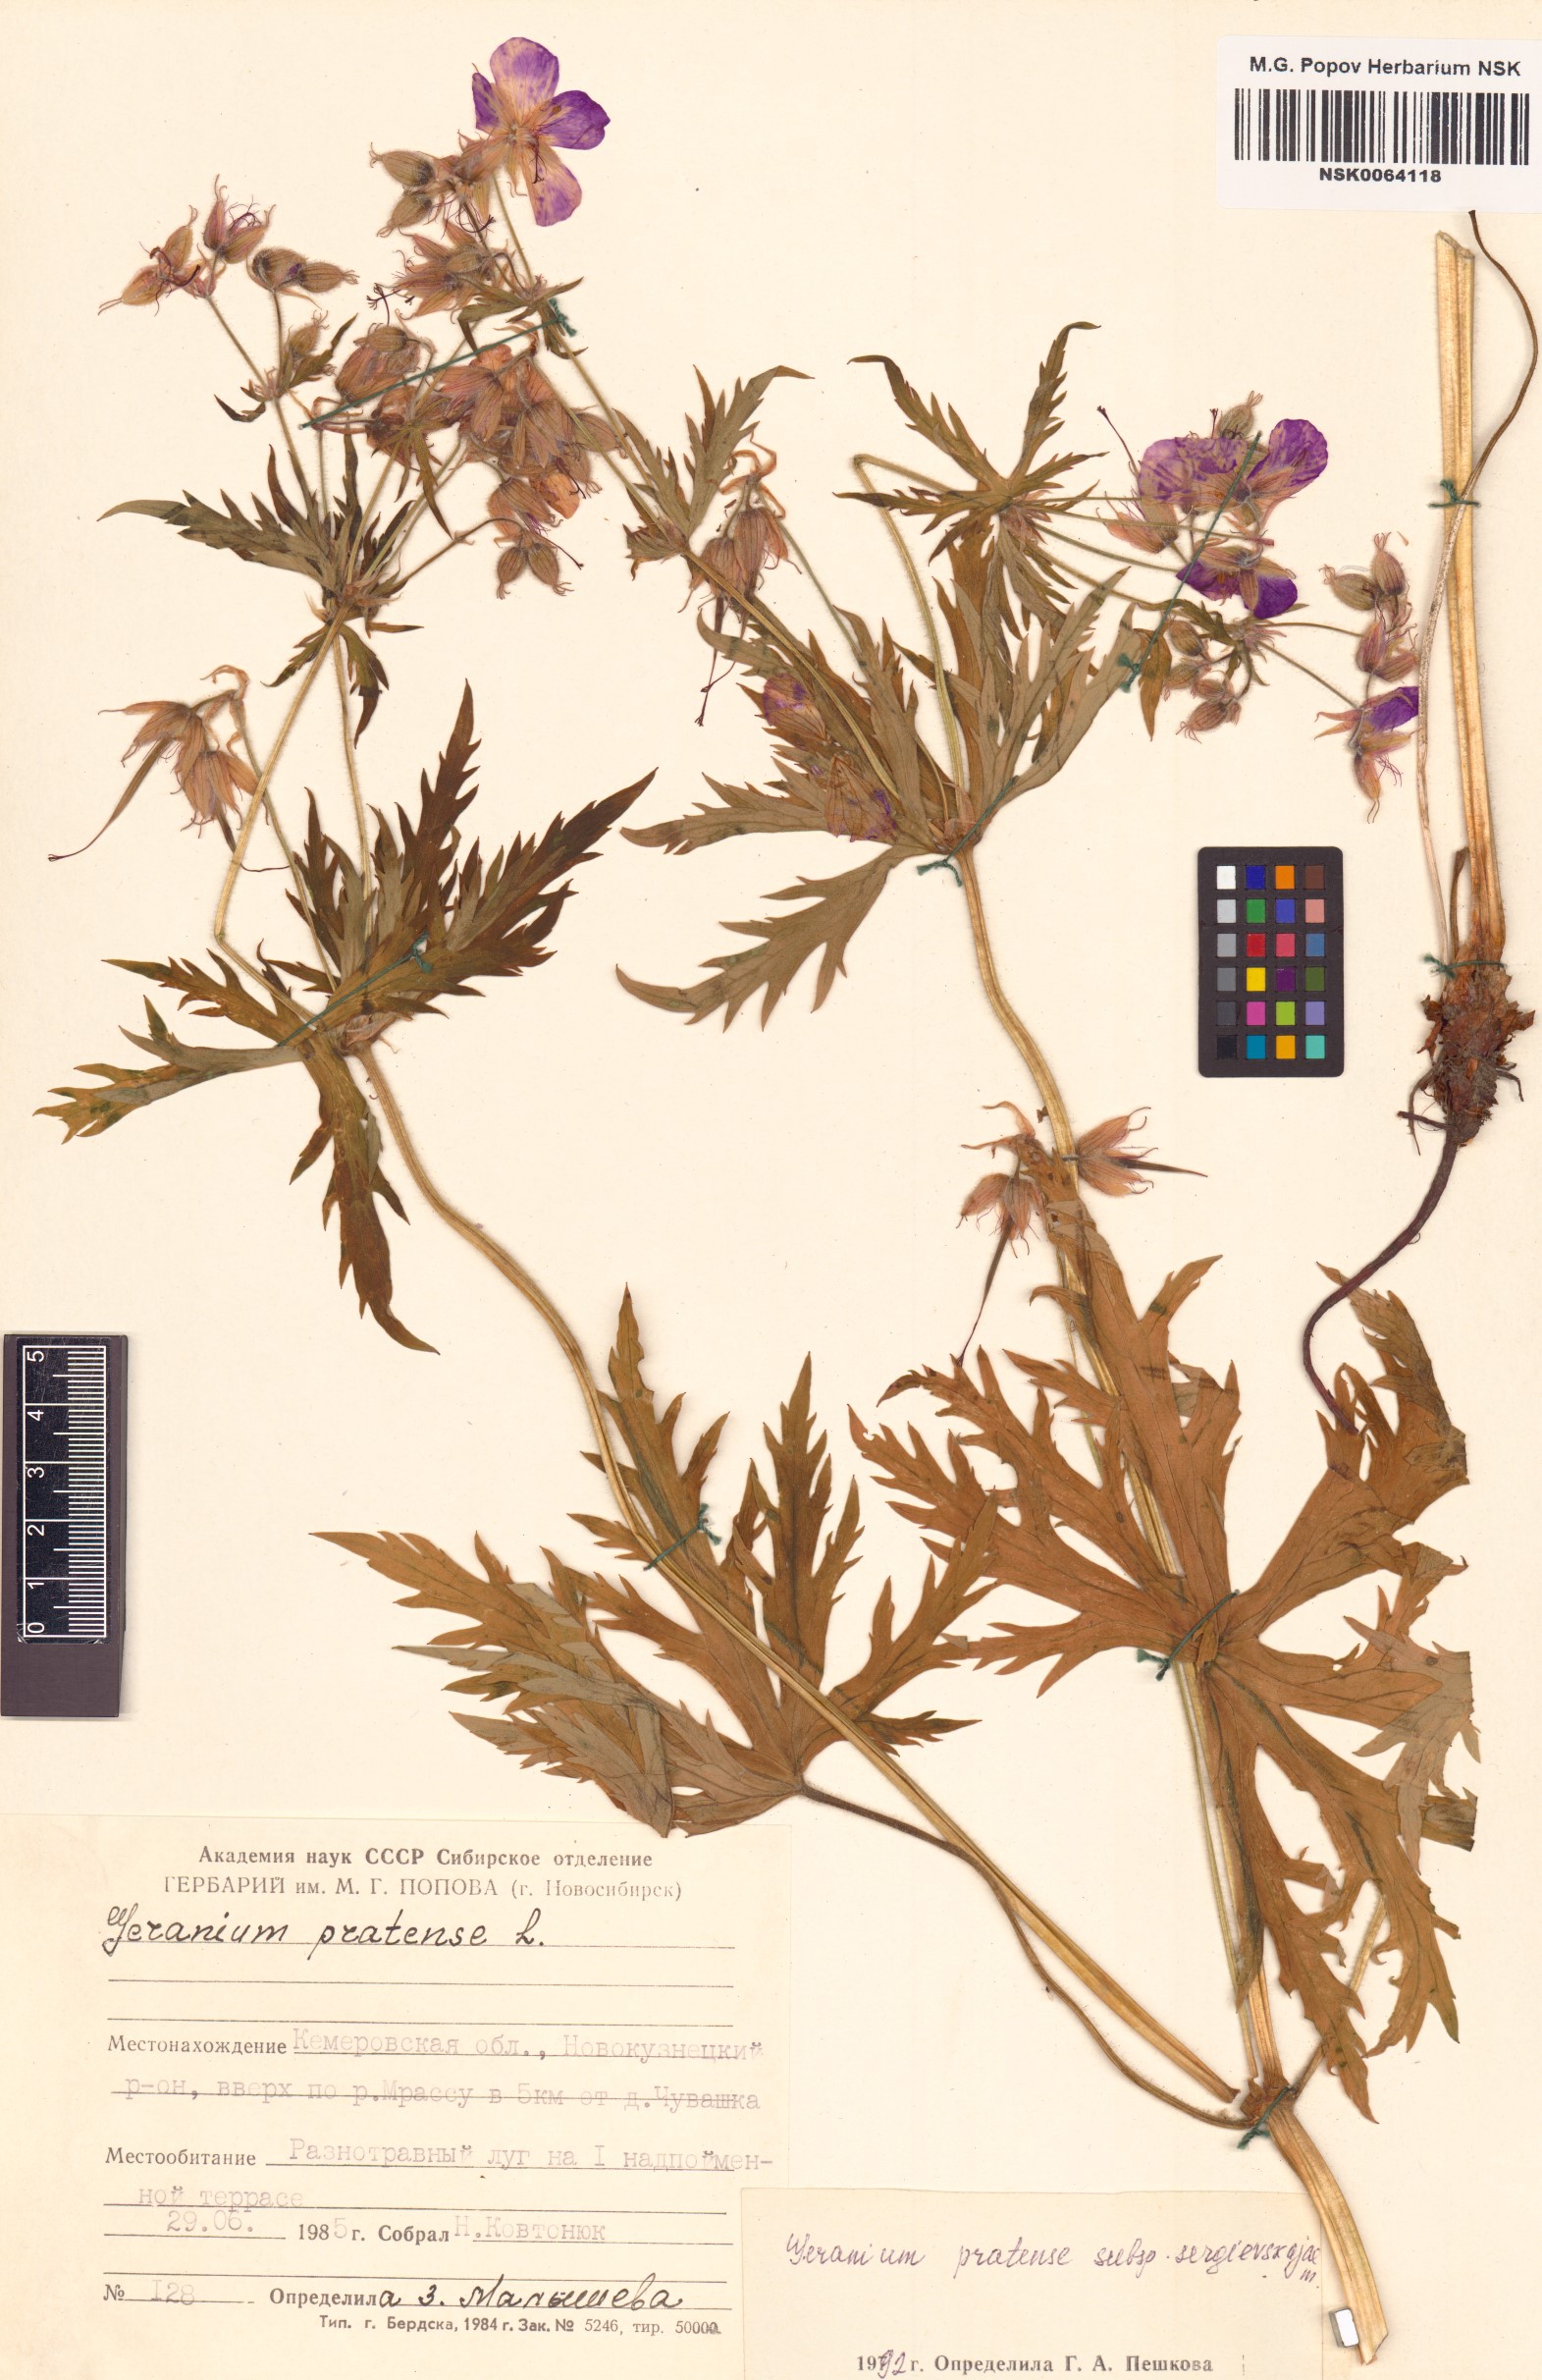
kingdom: Plantae
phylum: Tracheophyta
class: Magnoliopsida
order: Geraniales
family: Geraniaceae
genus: Geranium
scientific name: Geranium pratense
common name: Meadow crane's-bill
